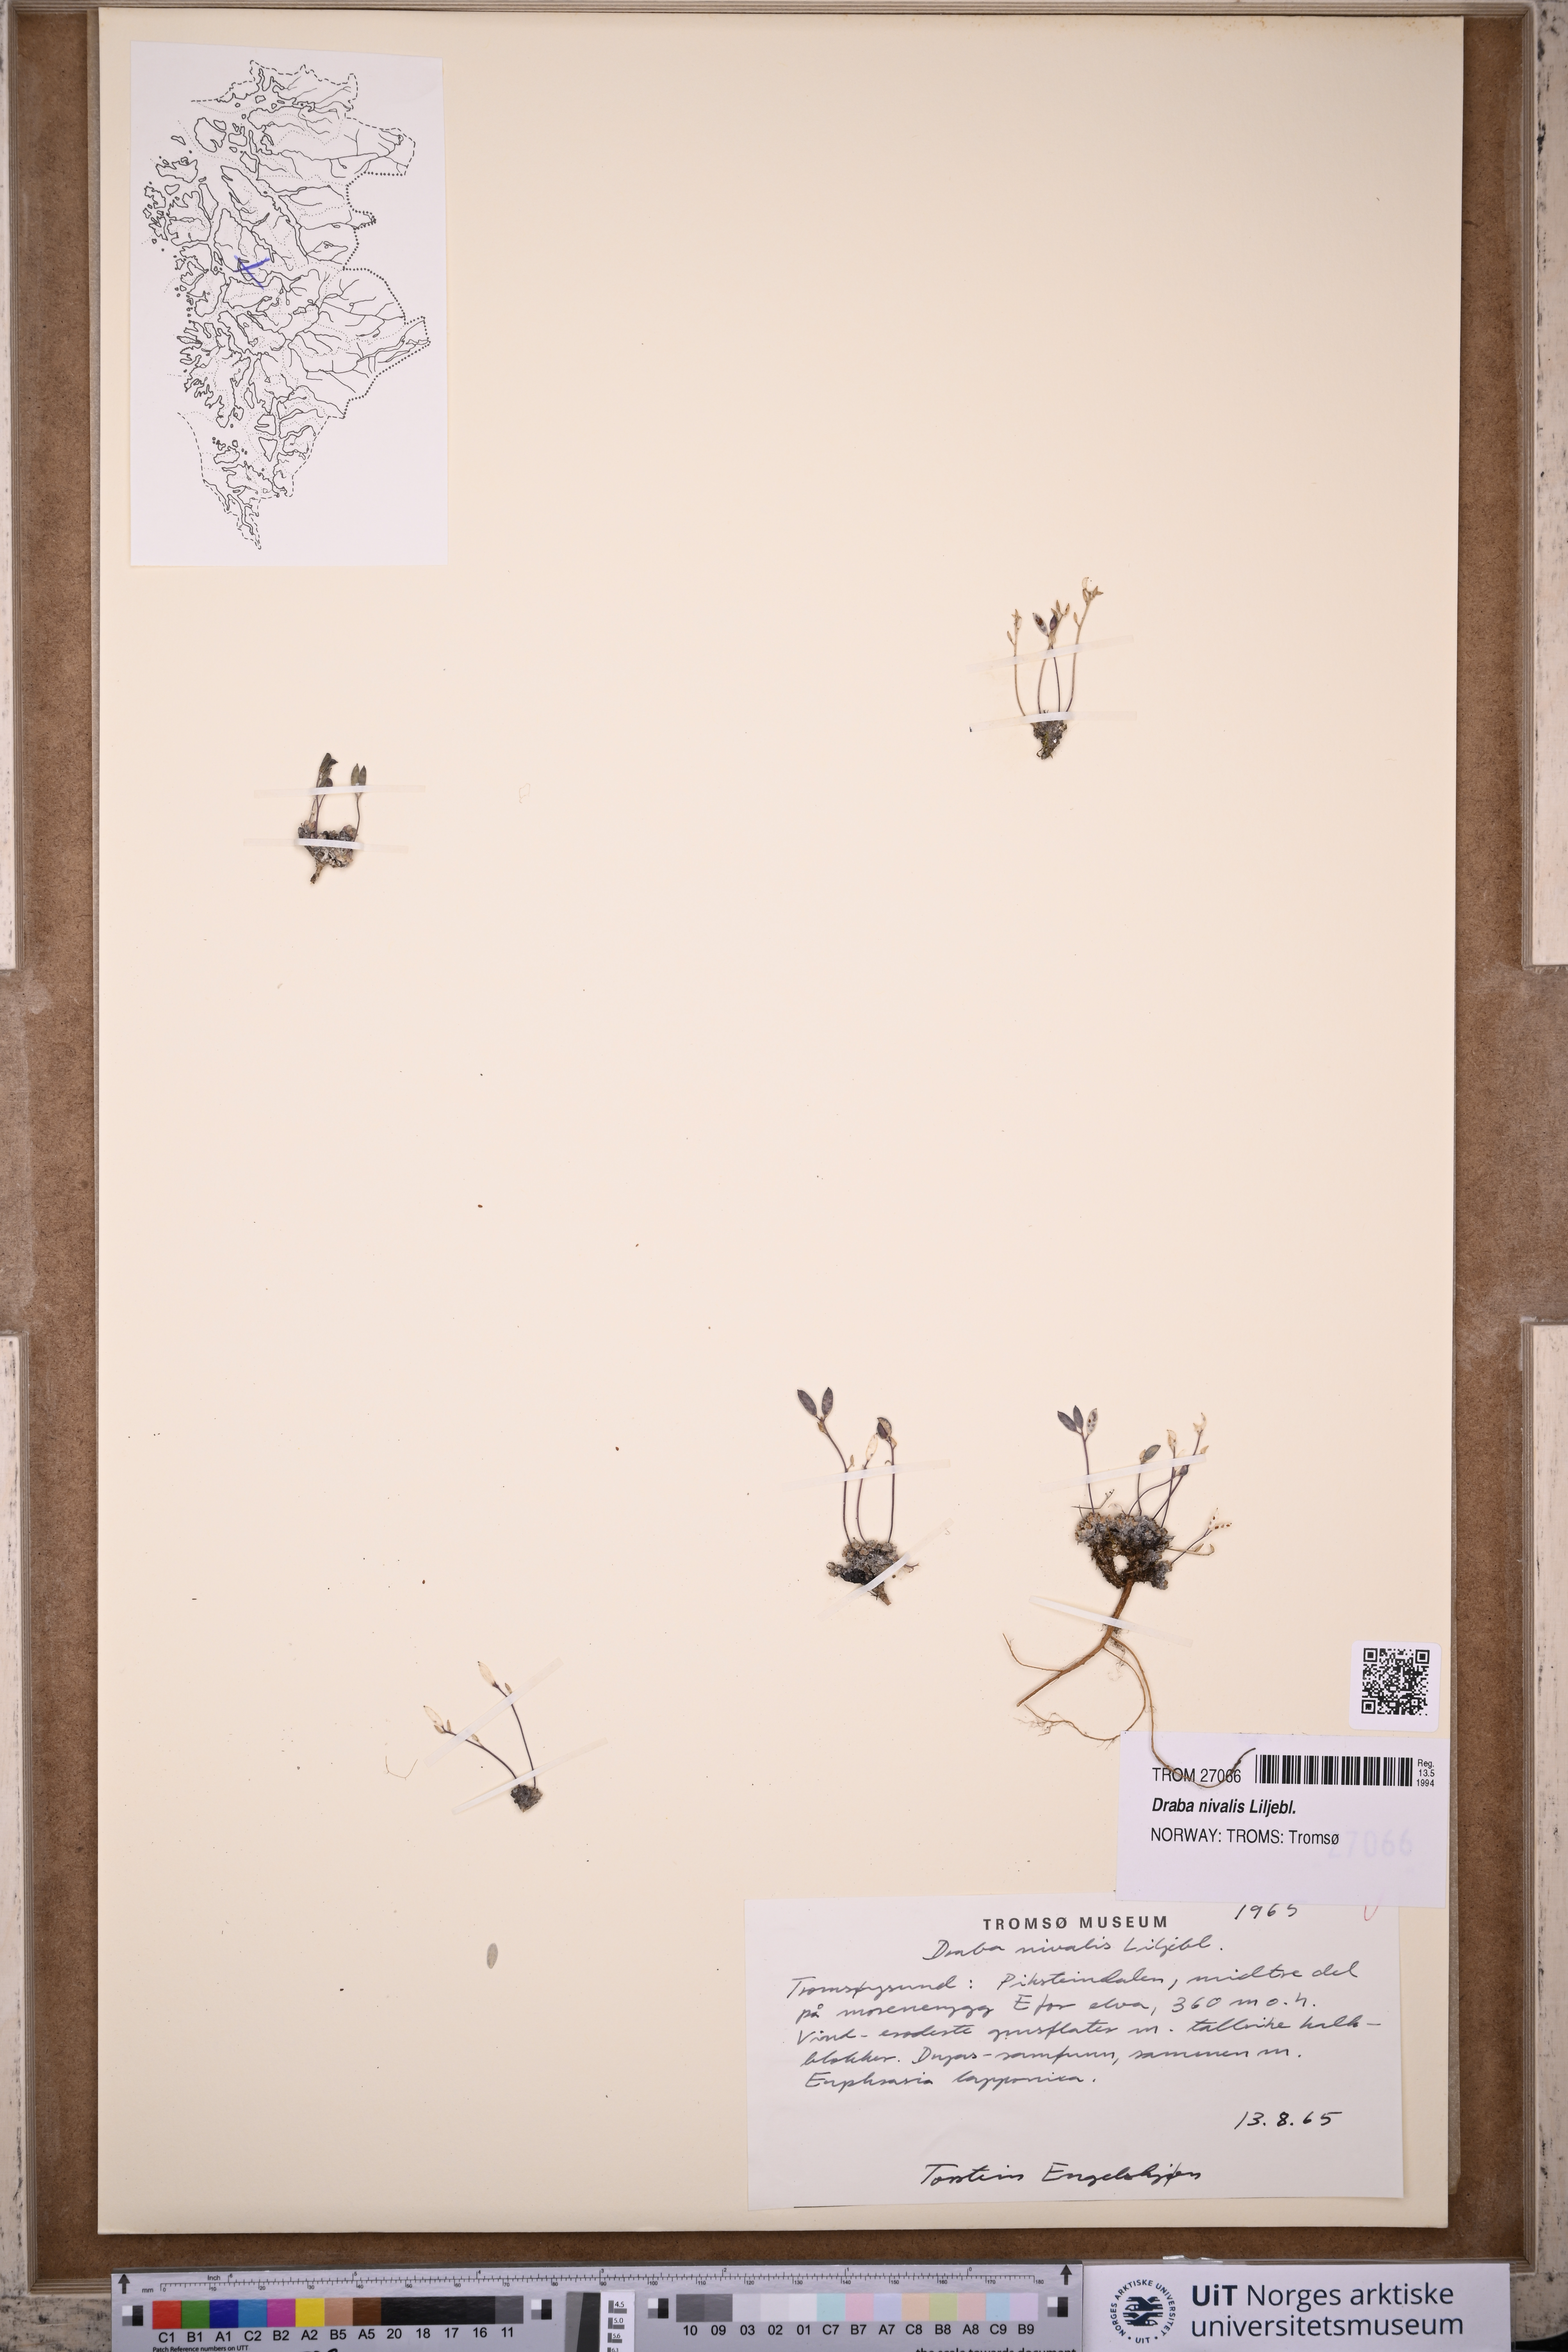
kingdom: Plantae
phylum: Tracheophyta
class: Magnoliopsida
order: Brassicales
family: Brassicaceae
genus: Draba
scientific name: Draba nivalis
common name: Snow draba
